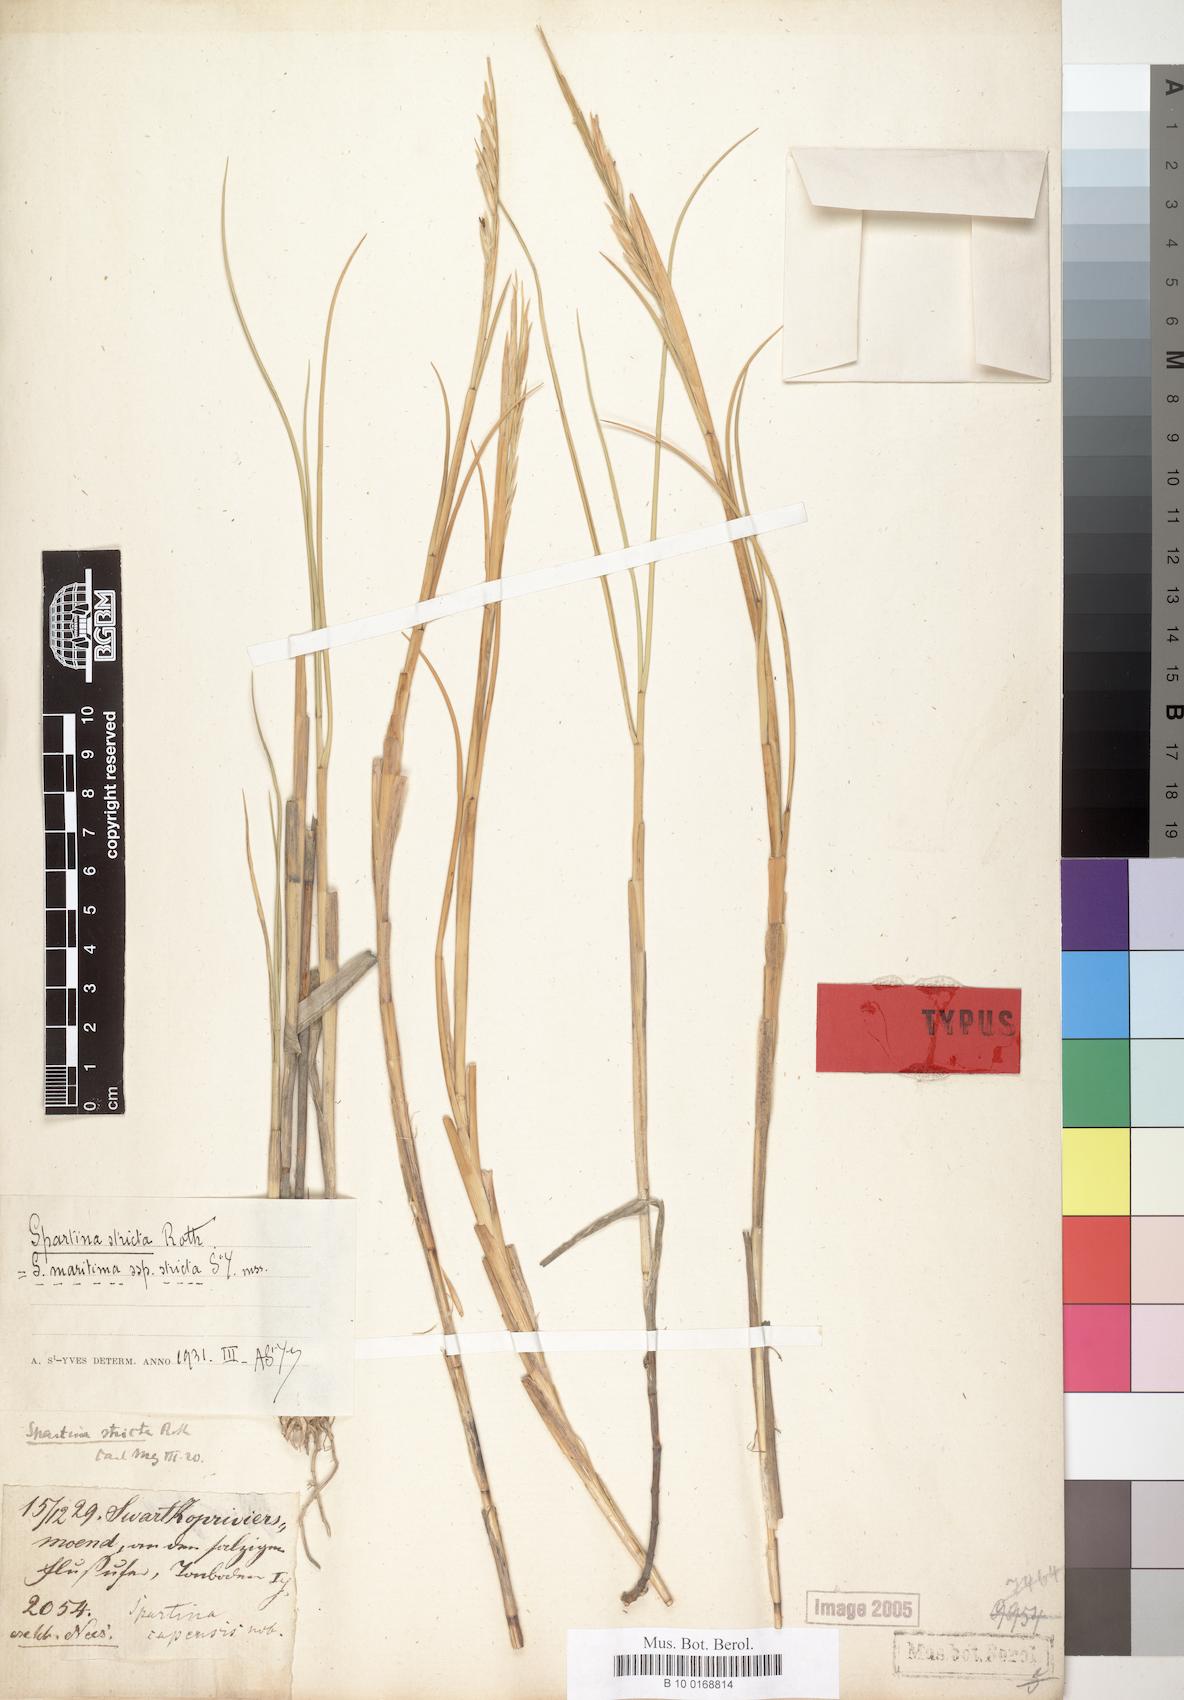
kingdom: Plantae
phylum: Tracheophyta
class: Liliopsida
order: Poales
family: Poaceae
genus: Sporobolus
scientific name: Sporobolus maritimus
